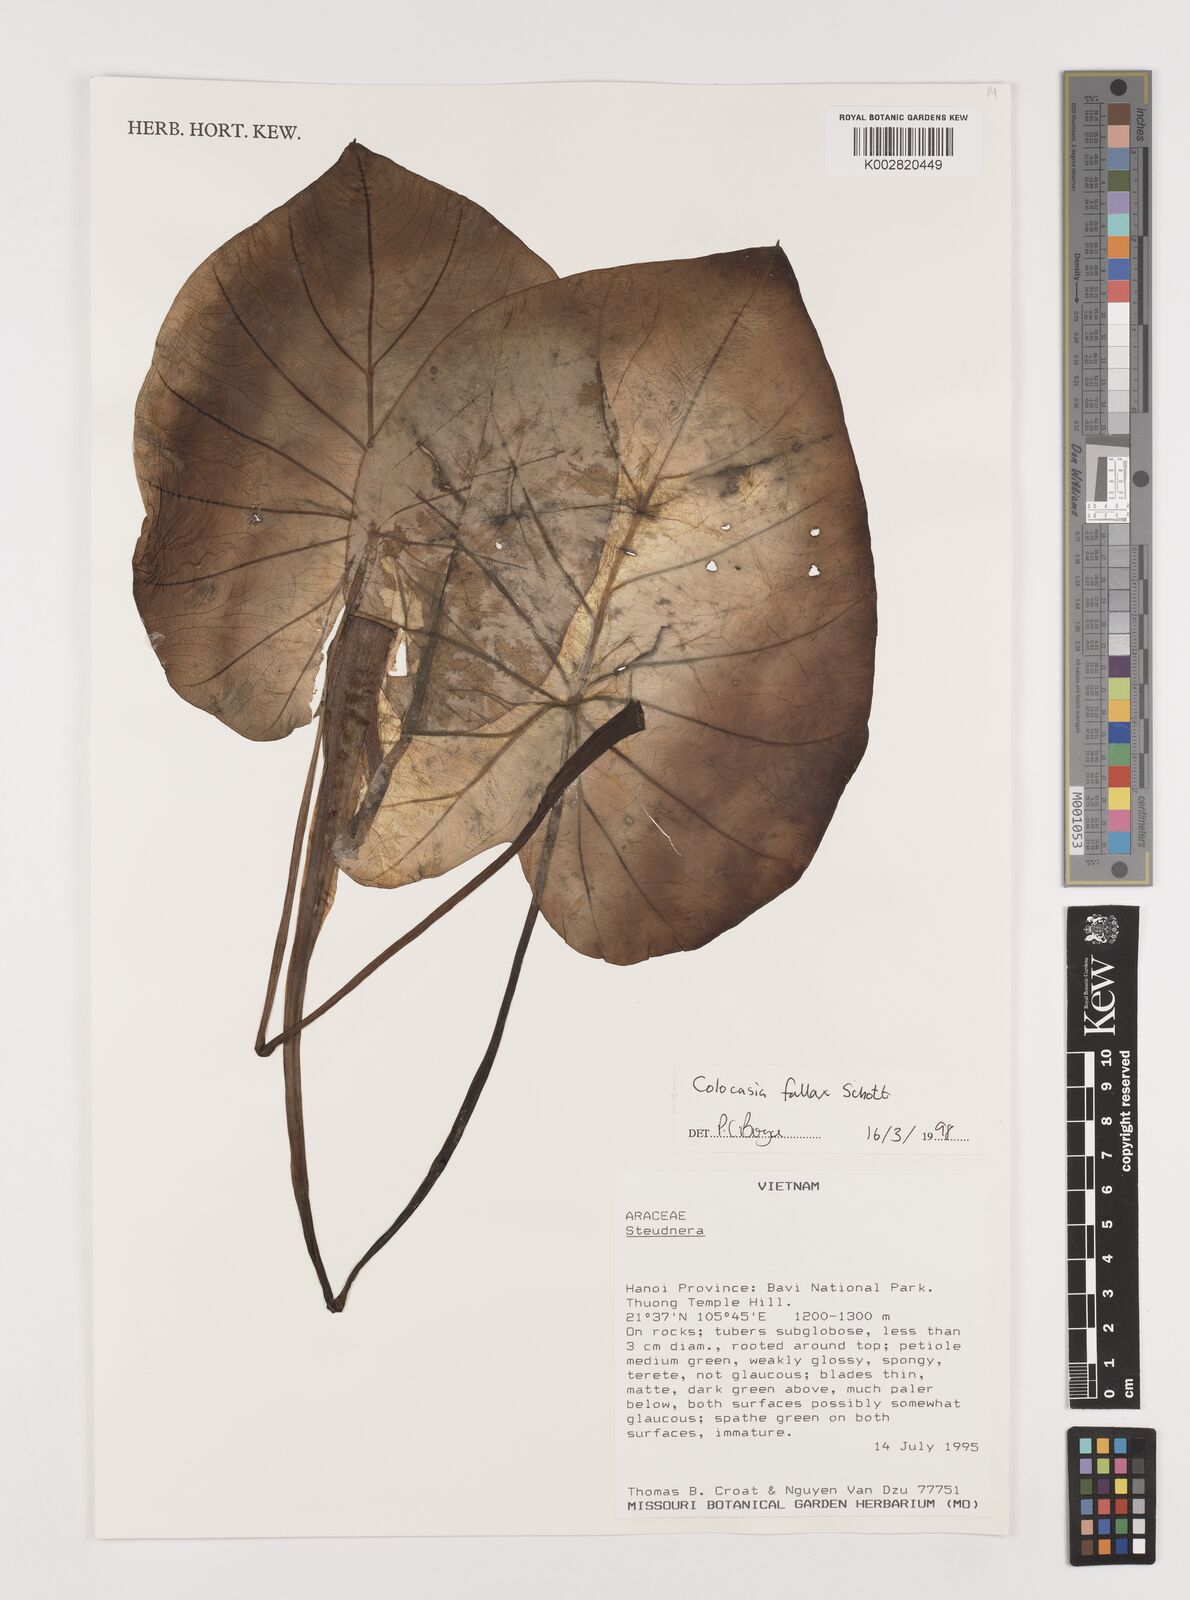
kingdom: Plantae
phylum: Tracheophyta
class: Liliopsida
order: Alismatales
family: Araceae
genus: Colocasia
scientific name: Colocasia fallax
